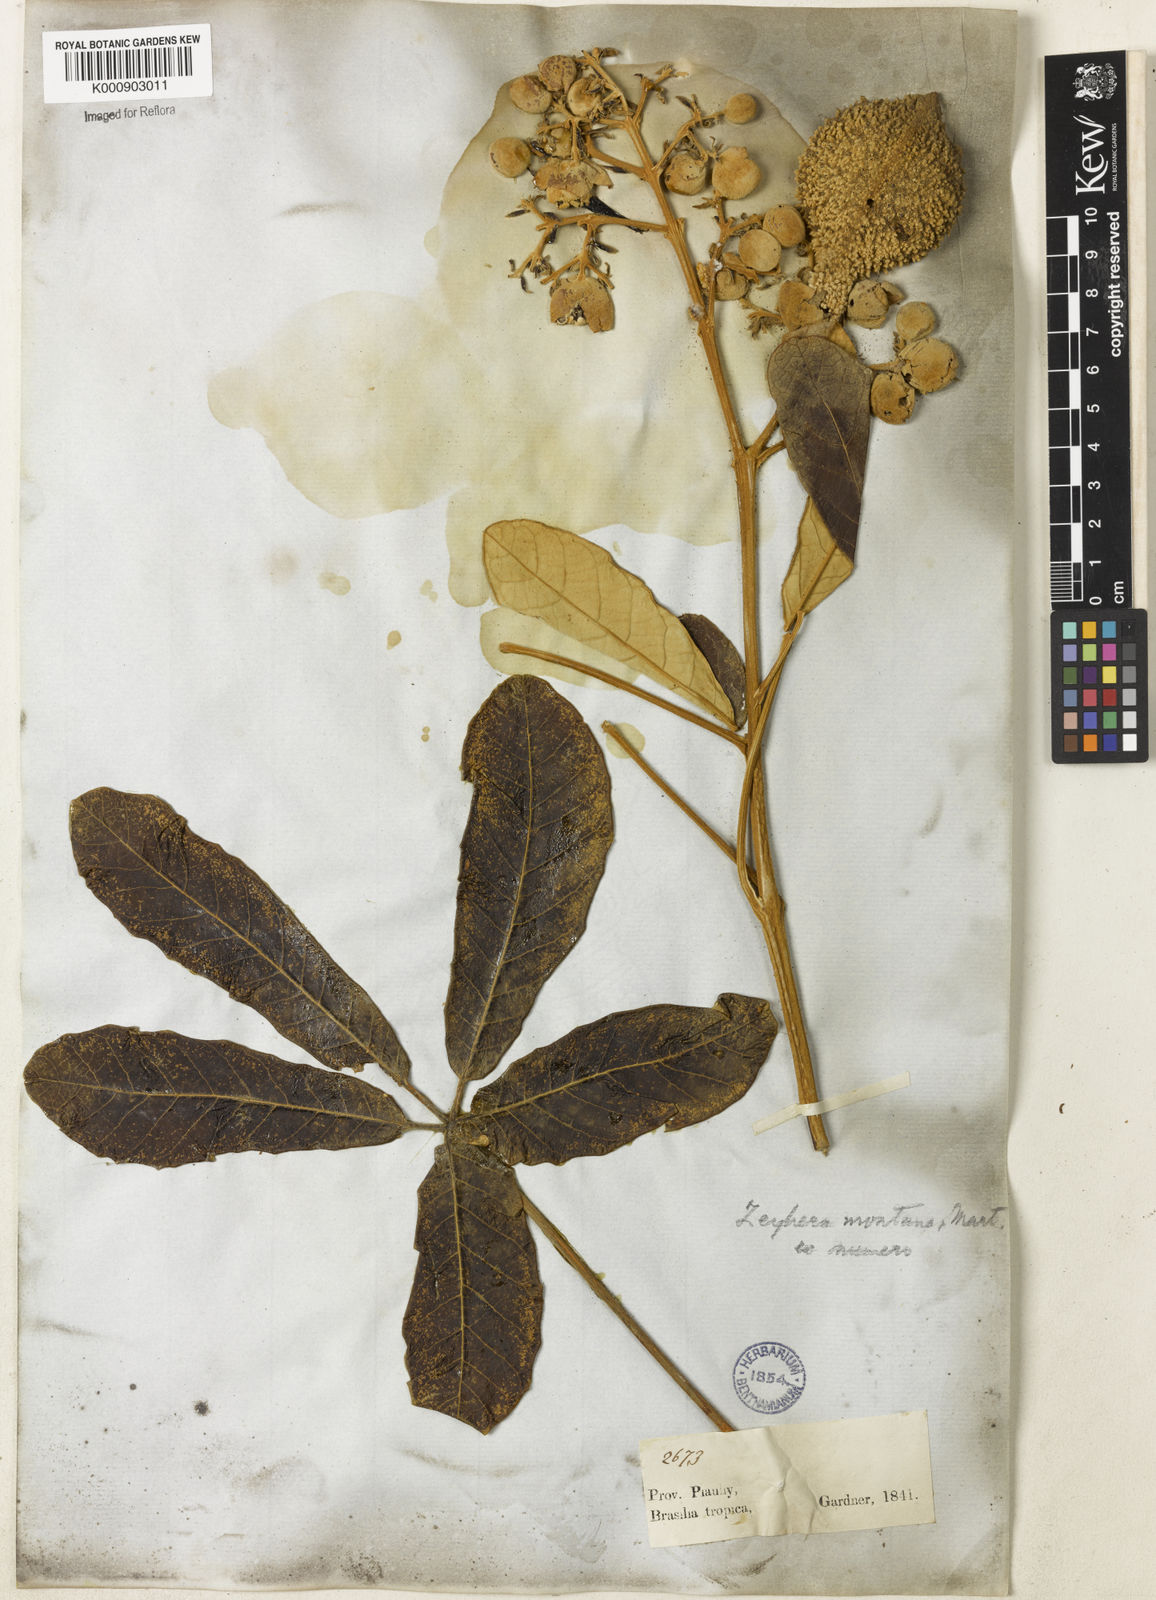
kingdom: Plantae
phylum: Tracheophyta
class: Magnoliopsida
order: Lamiales
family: Bignoniaceae
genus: Zeyheria
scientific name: Zeyheria montana
